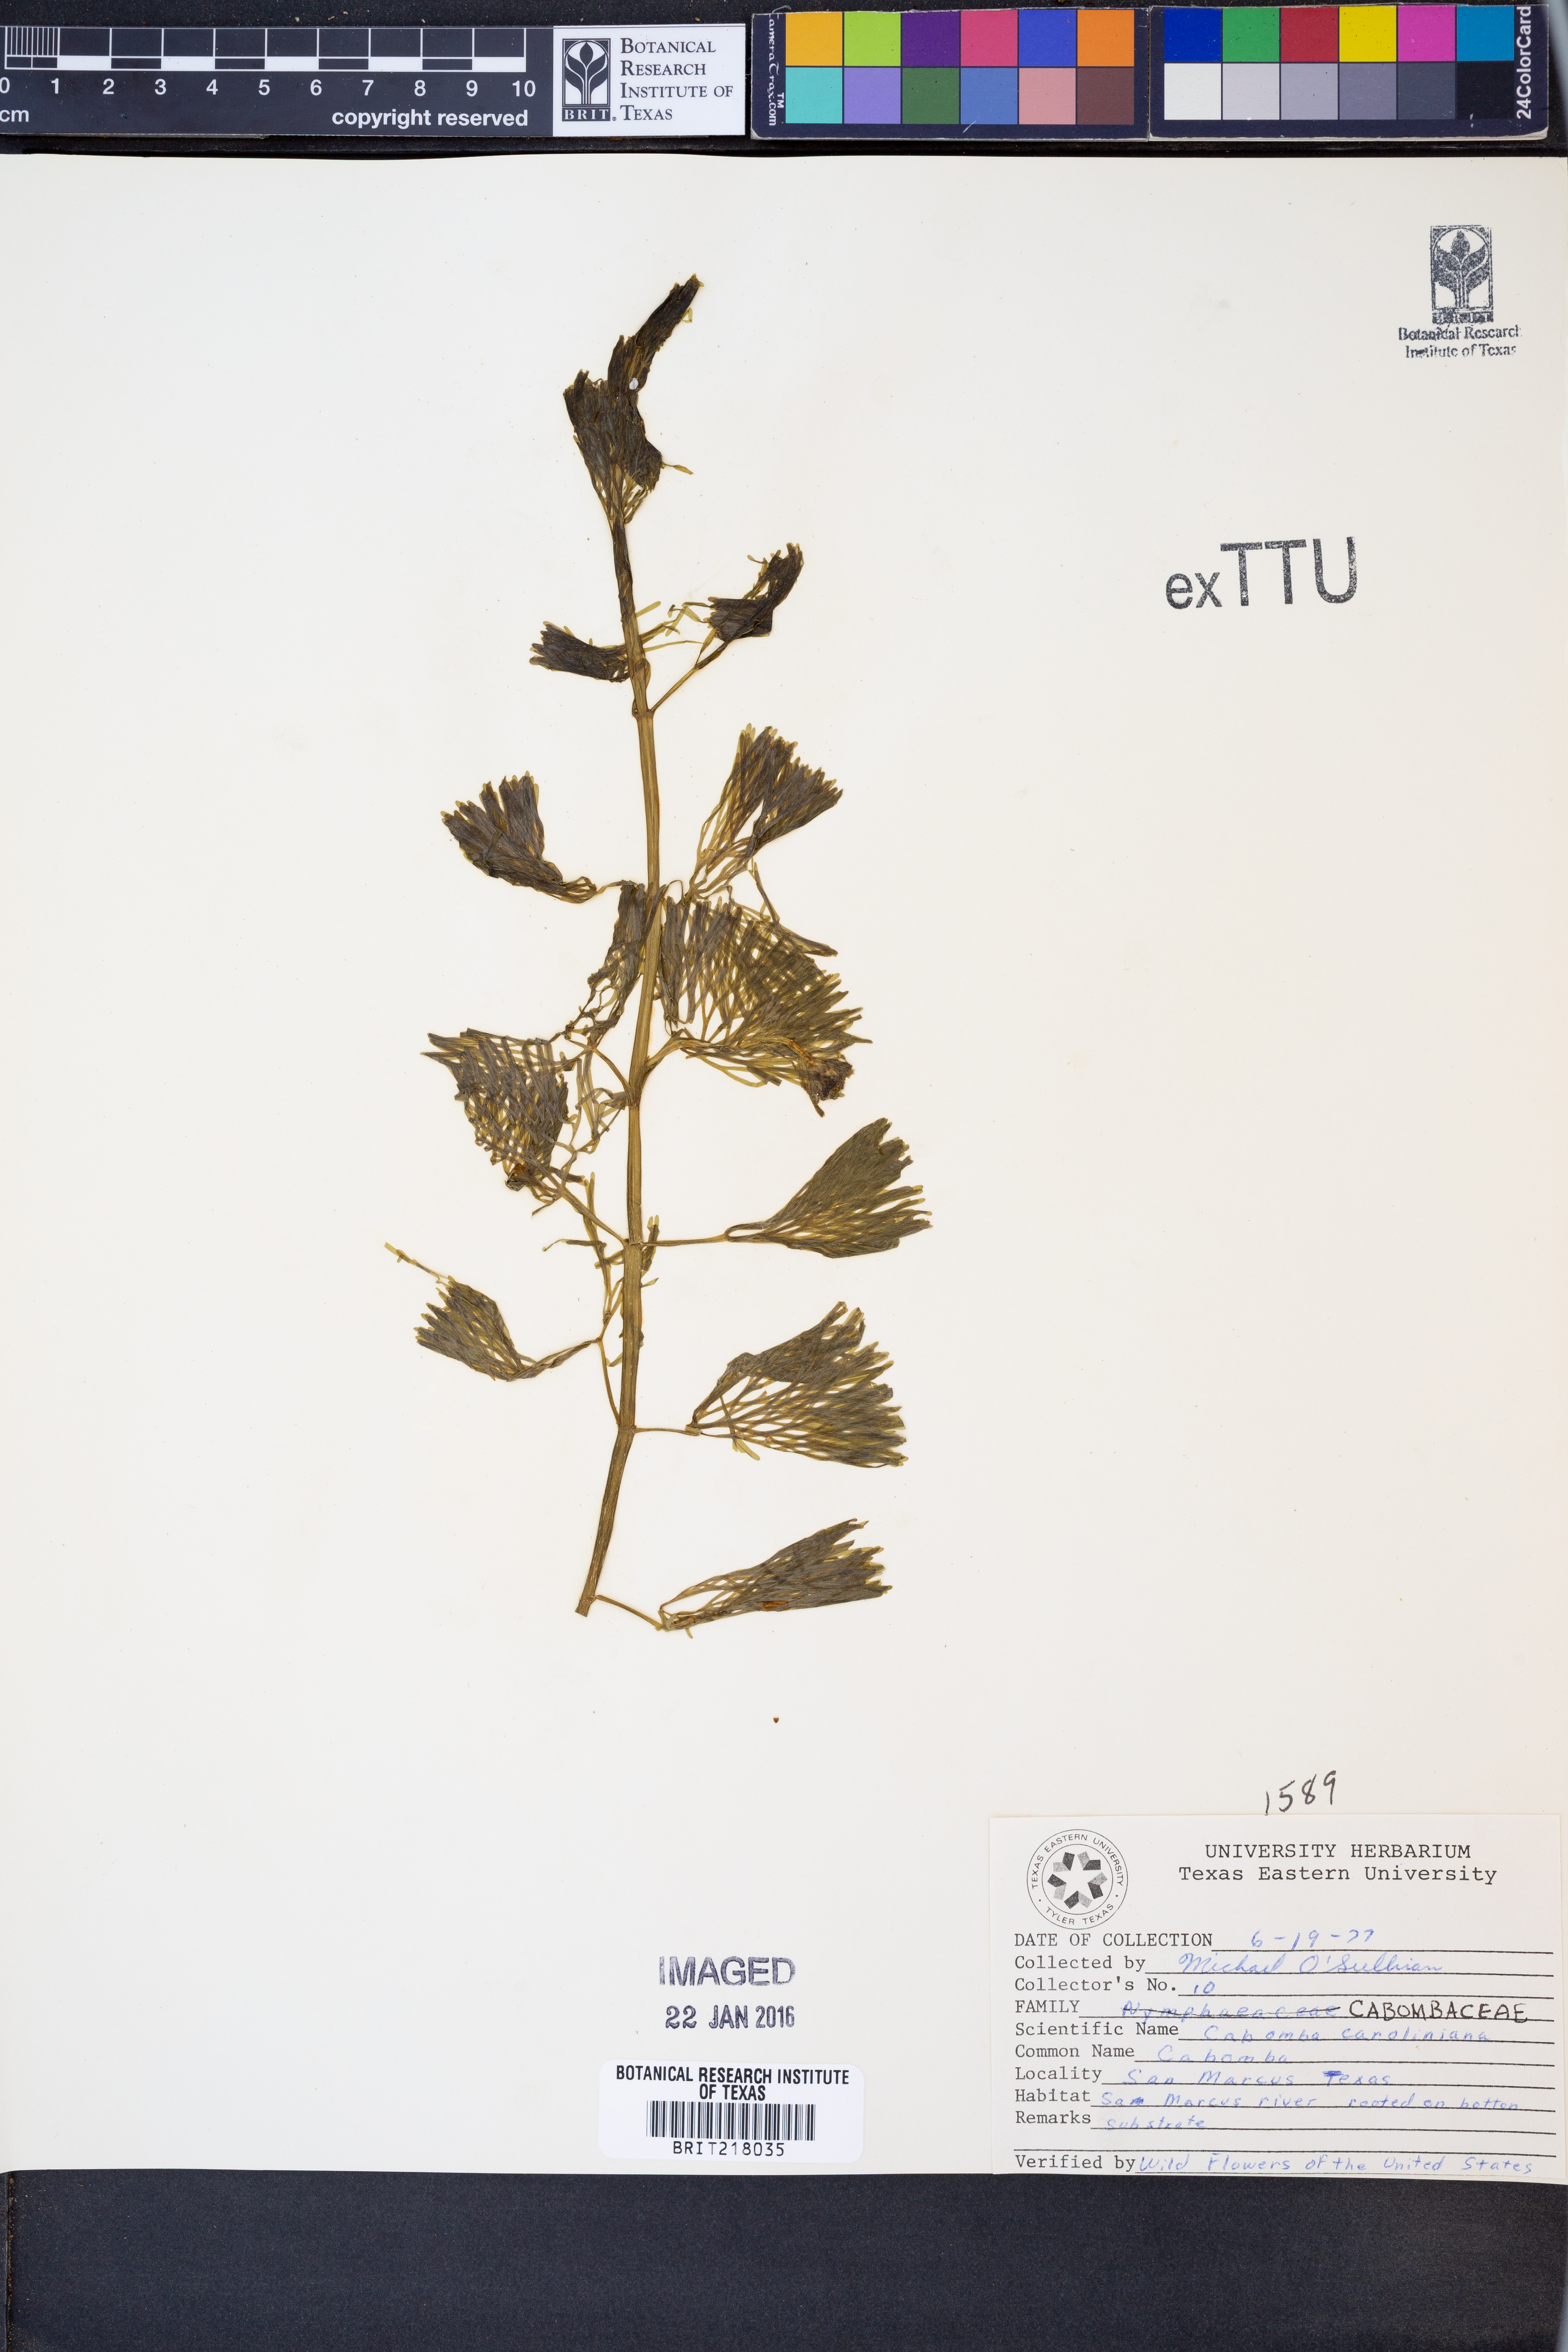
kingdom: Plantae
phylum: Tracheophyta
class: Magnoliopsida
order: Nymphaeales
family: Cabombaceae
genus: Cabomba
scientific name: Cabomba caroliniana
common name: Fanwort
